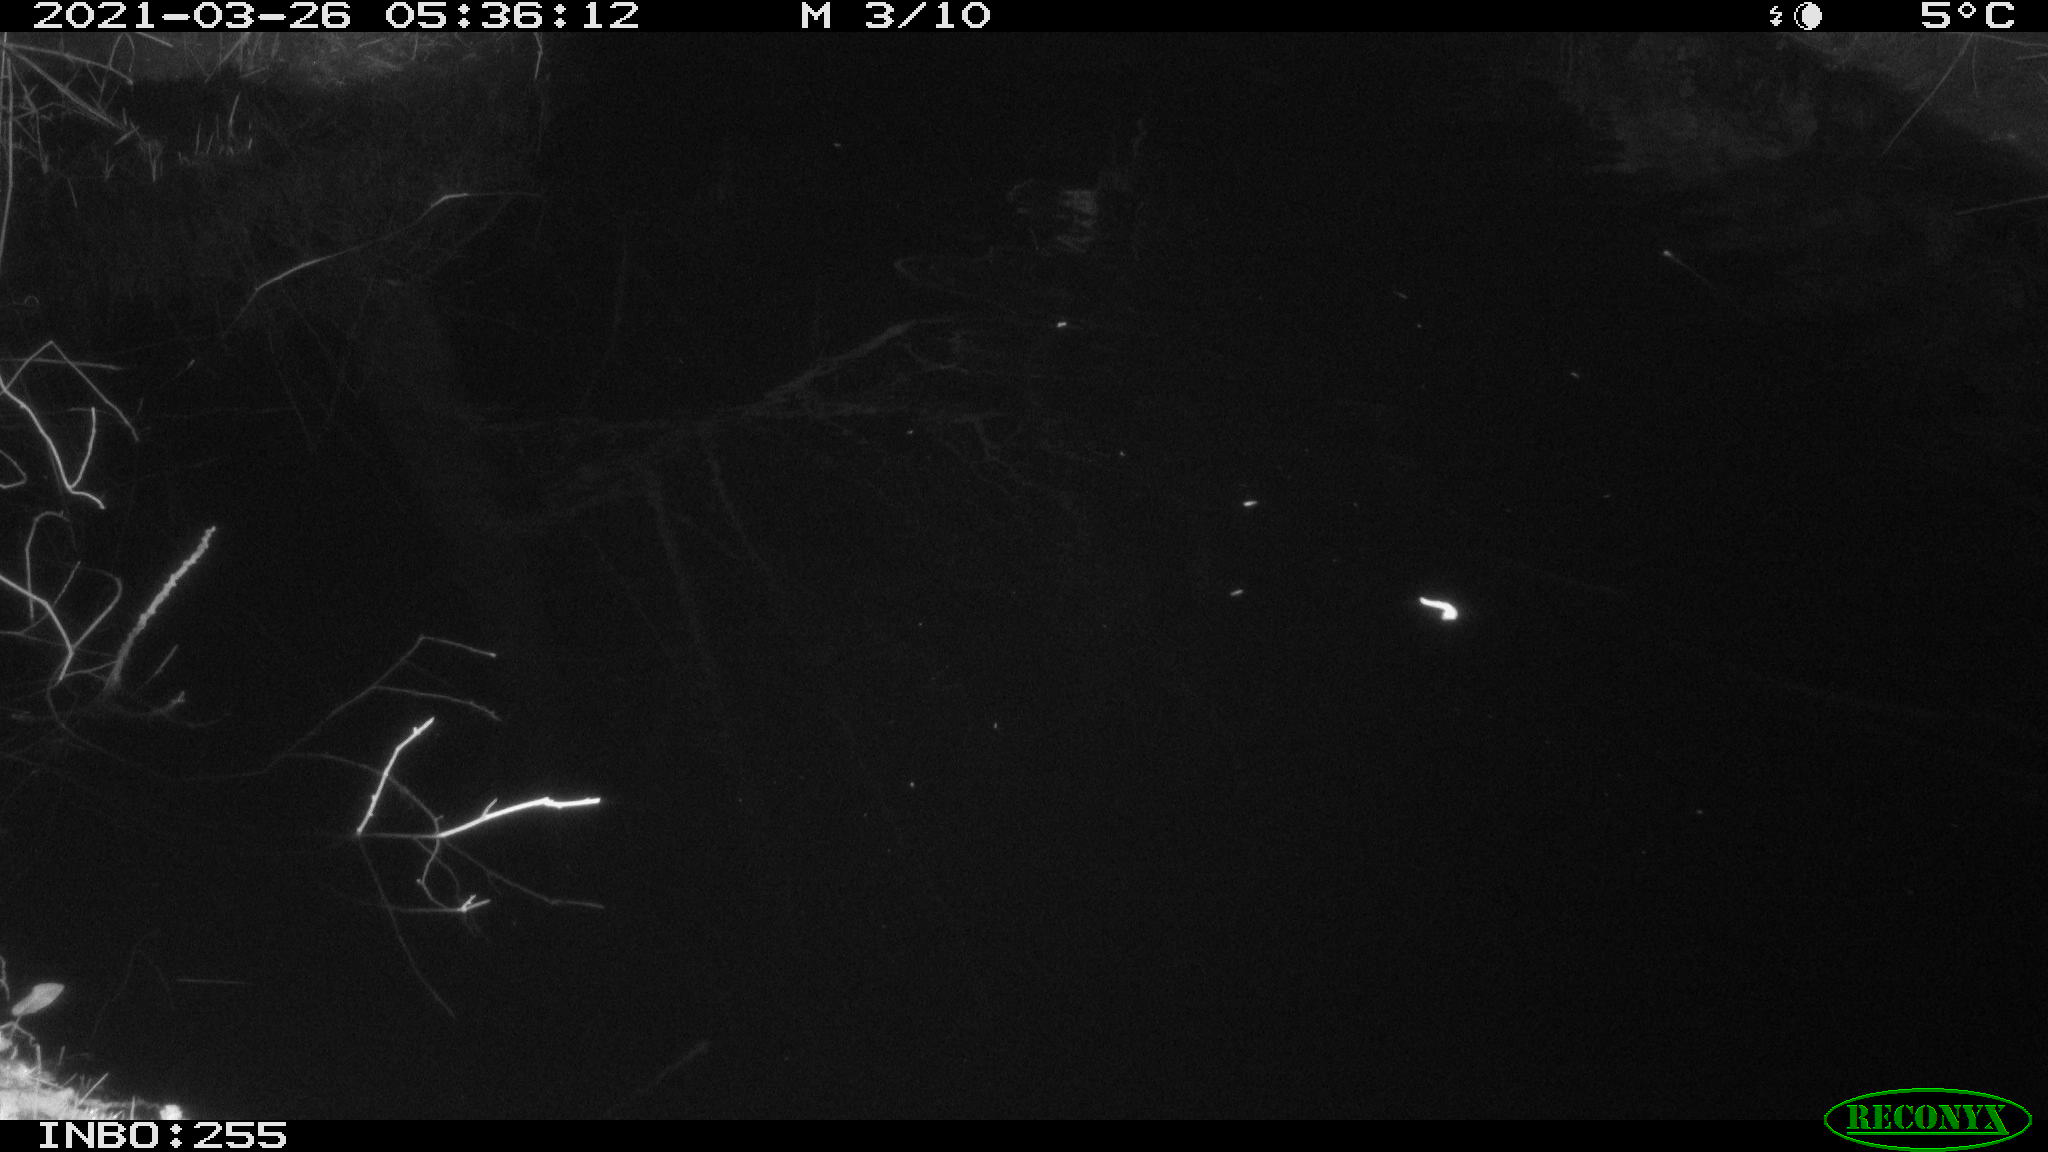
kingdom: Animalia
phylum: Chordata
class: Aves
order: Anseriformes
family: Anatidae
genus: Anas
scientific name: Anas platyrhynchos
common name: Mallard
